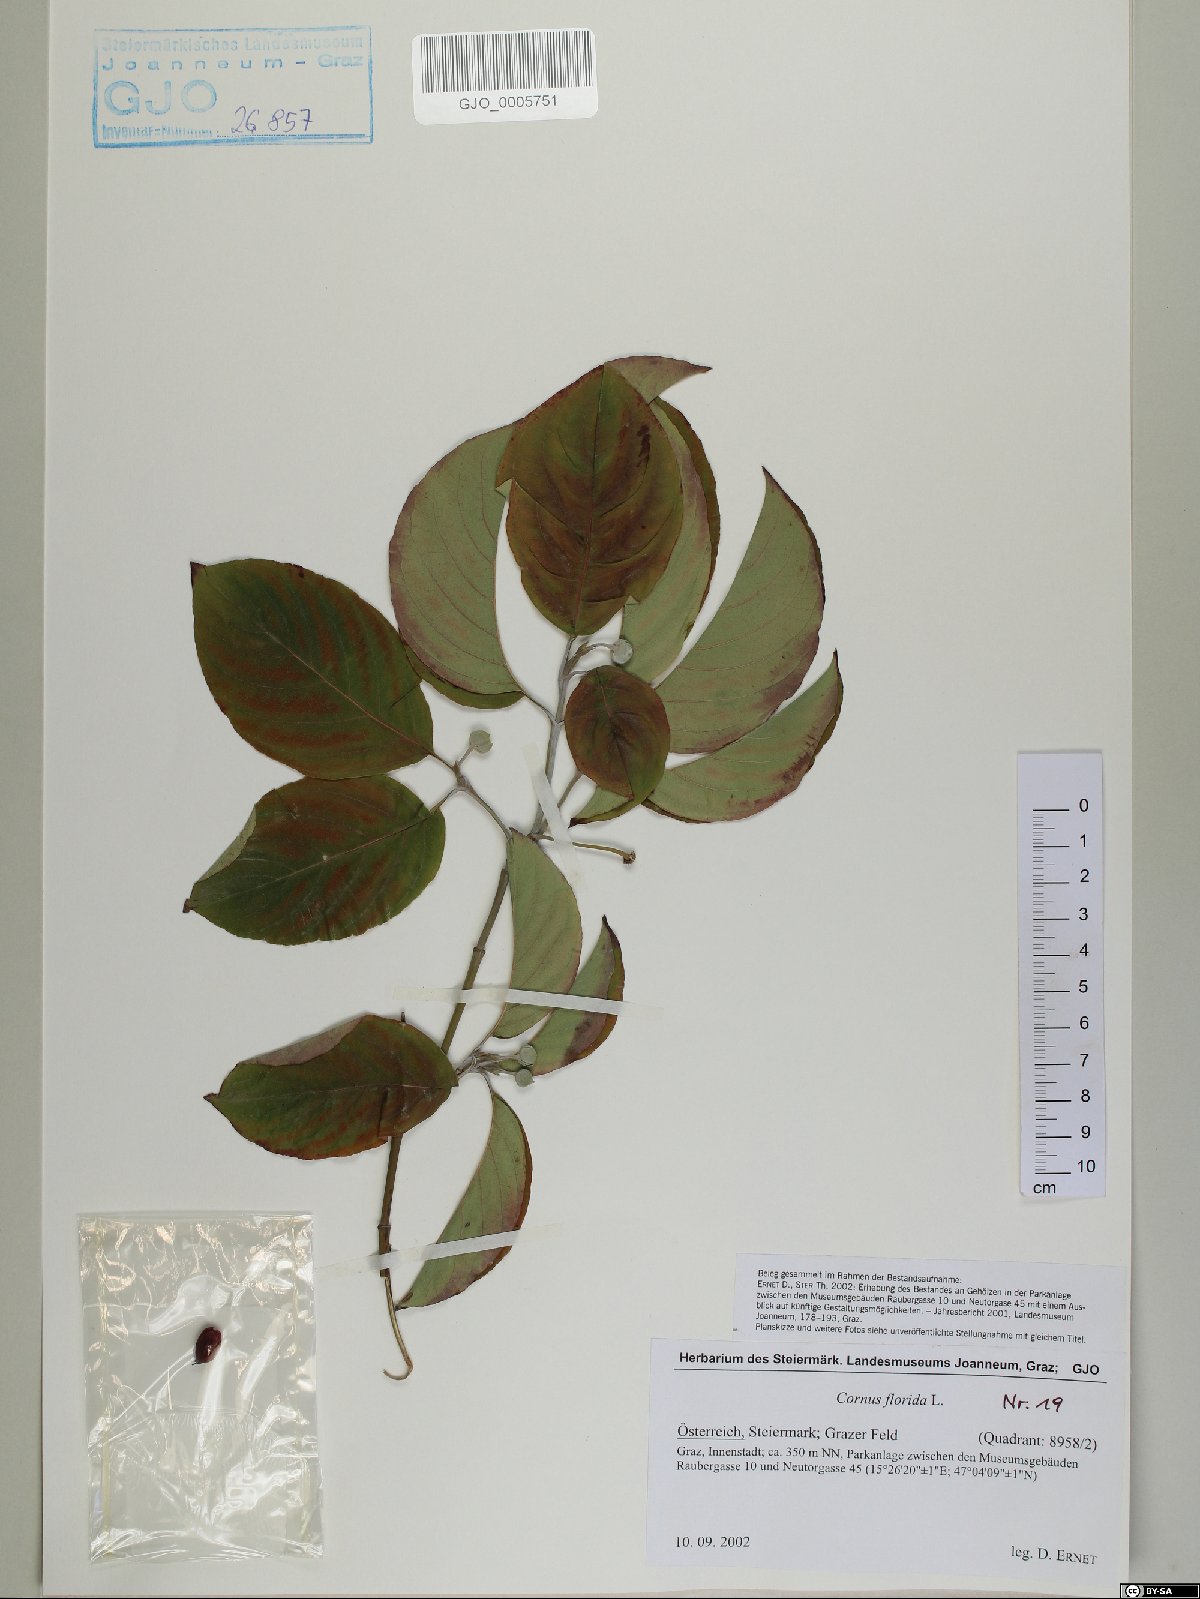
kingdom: Plantae
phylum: Tracheophyta
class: Magnoliopsida
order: Cornales
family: Cornaceae
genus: Cornus
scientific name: Cornus florida
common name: Flowering dogwood
